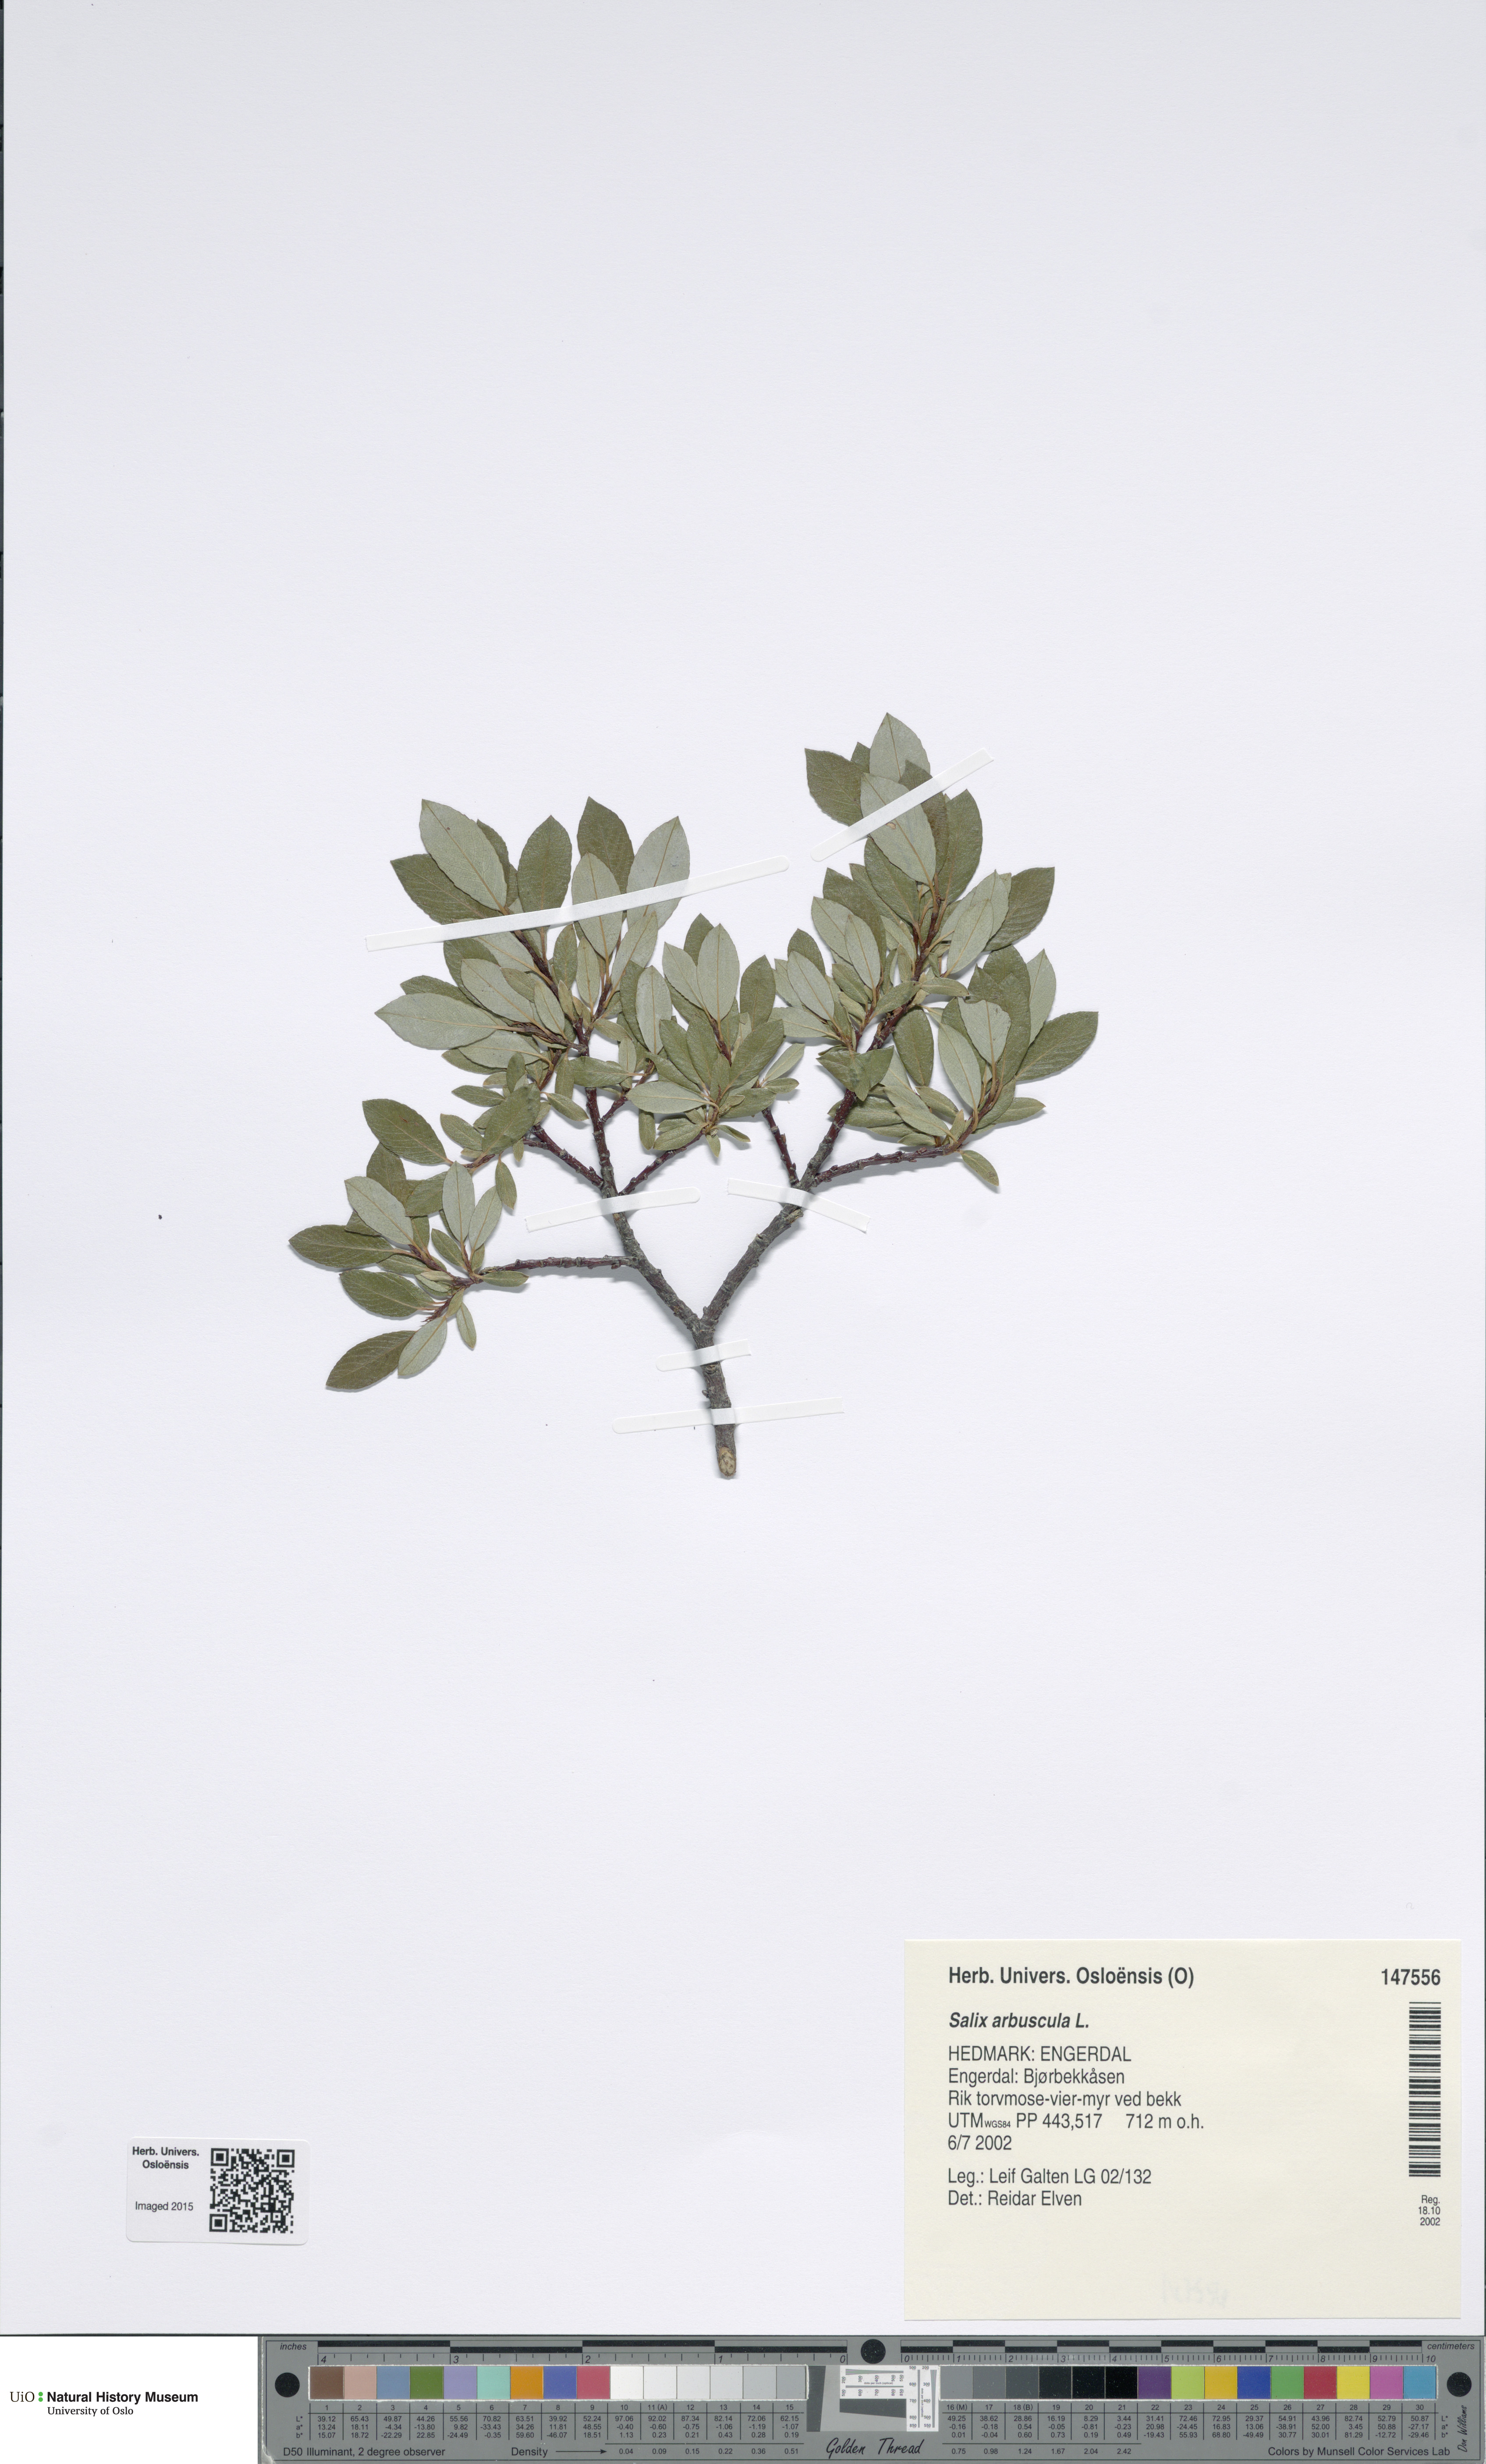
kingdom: Plantae
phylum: Tracheophyta
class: Magnoliopsida
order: Malpighiales
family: Salicaceae
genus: Salix
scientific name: Salix arbuscula
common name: Mountain willow
